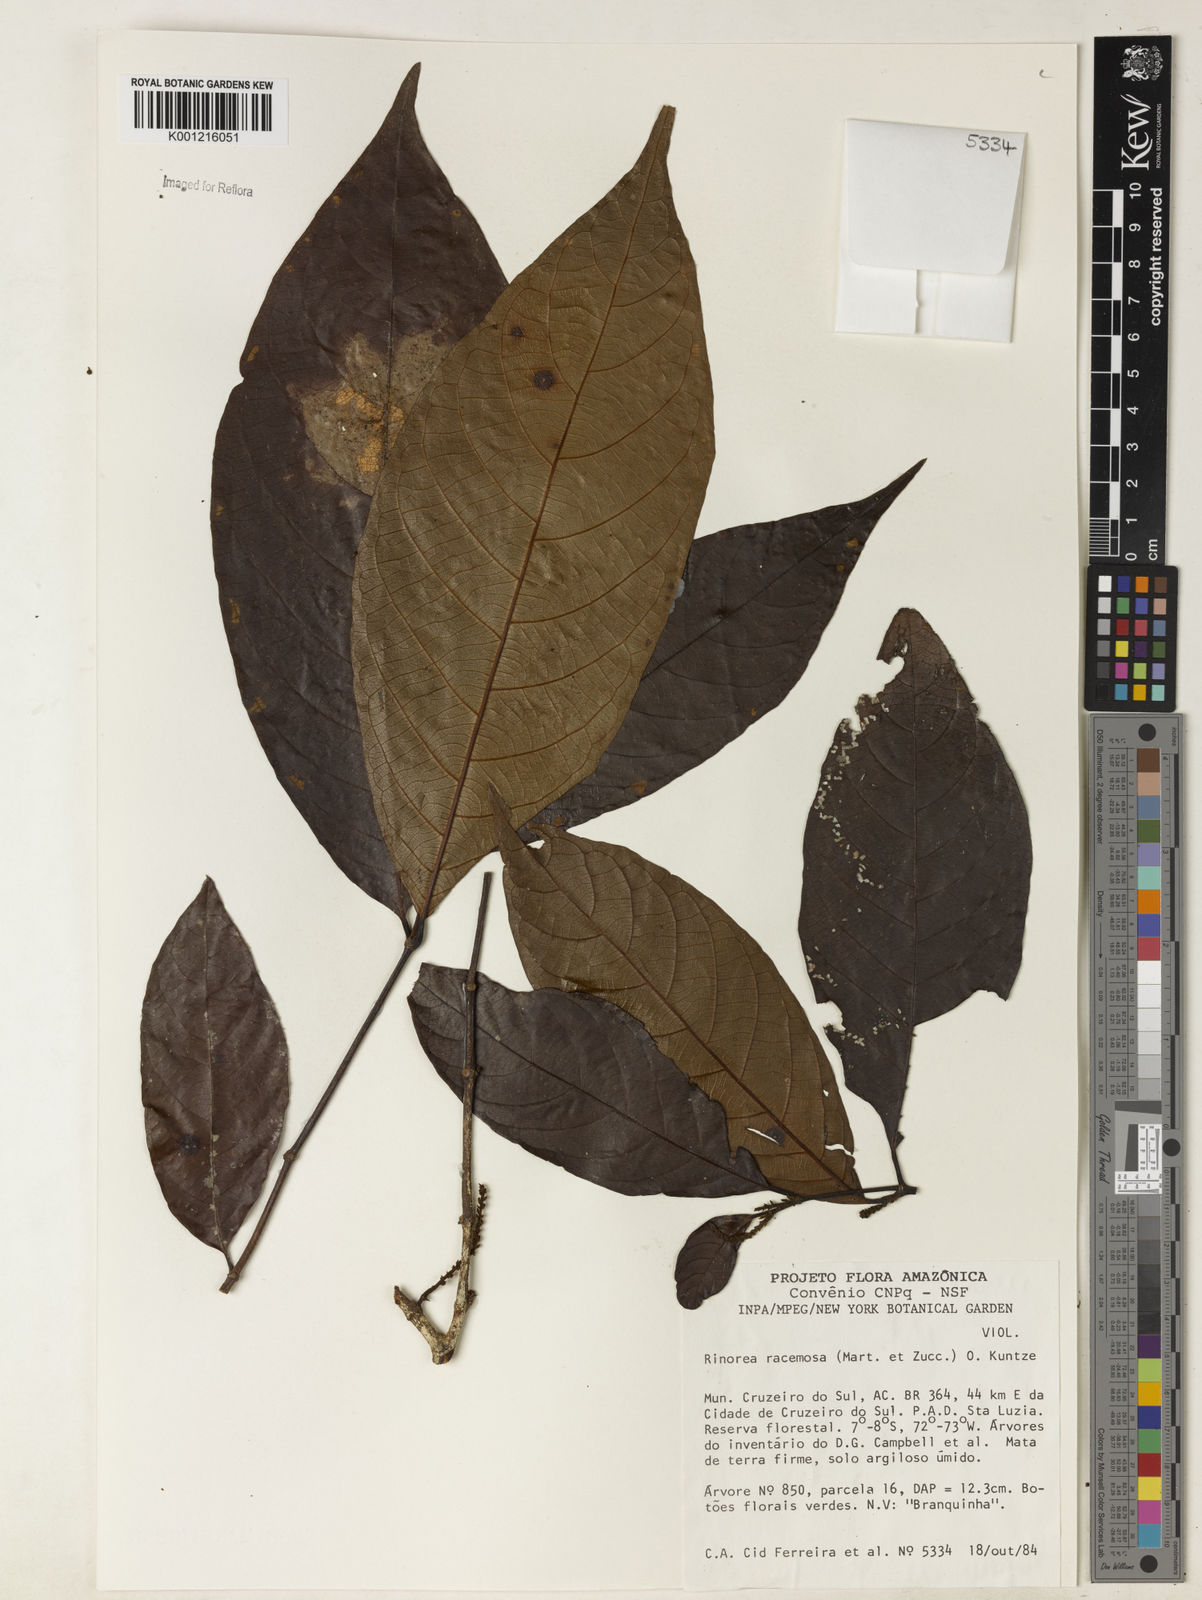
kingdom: Plantae
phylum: Tracheophyta
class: Magnoliopsida
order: Malpighiales
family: Violaceae
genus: Rinorea
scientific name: Rinorea racemosa
